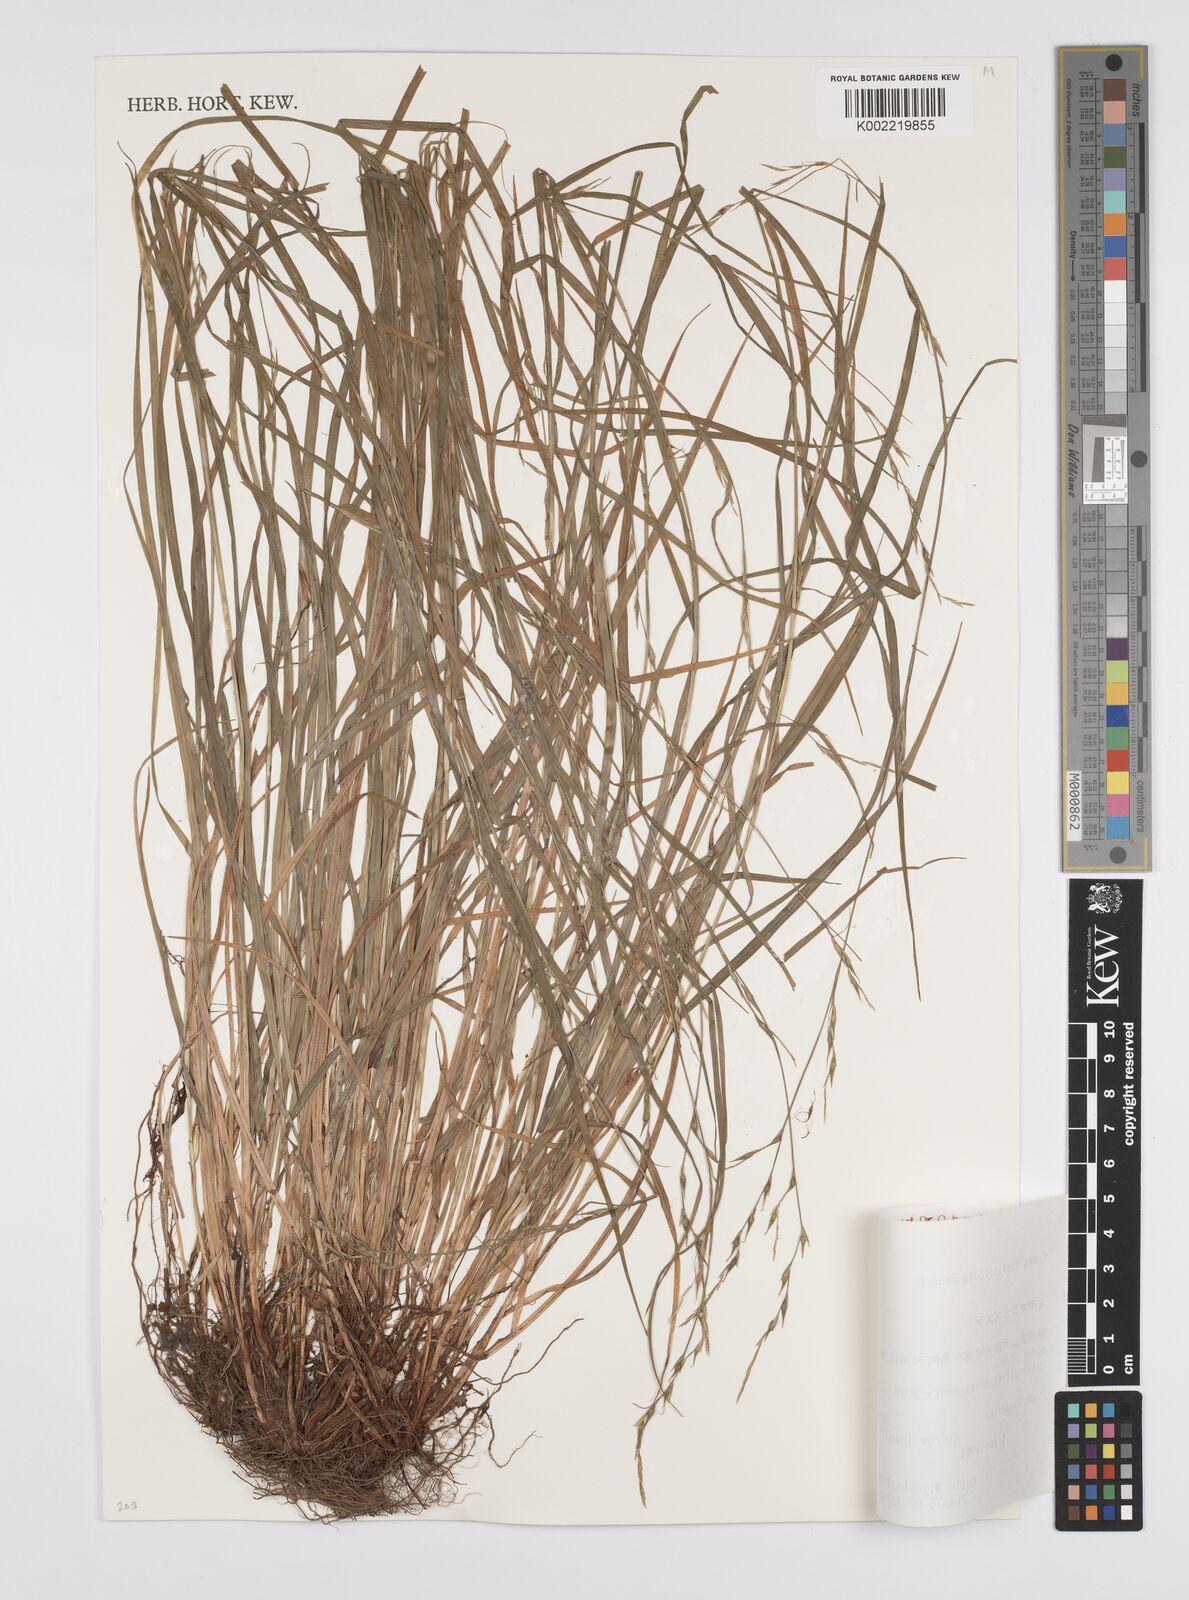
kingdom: Plantae
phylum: Tracheophyta
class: Liliopsida
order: Poales
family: Cyperaceae
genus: Carex
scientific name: Carex dissitiflora
